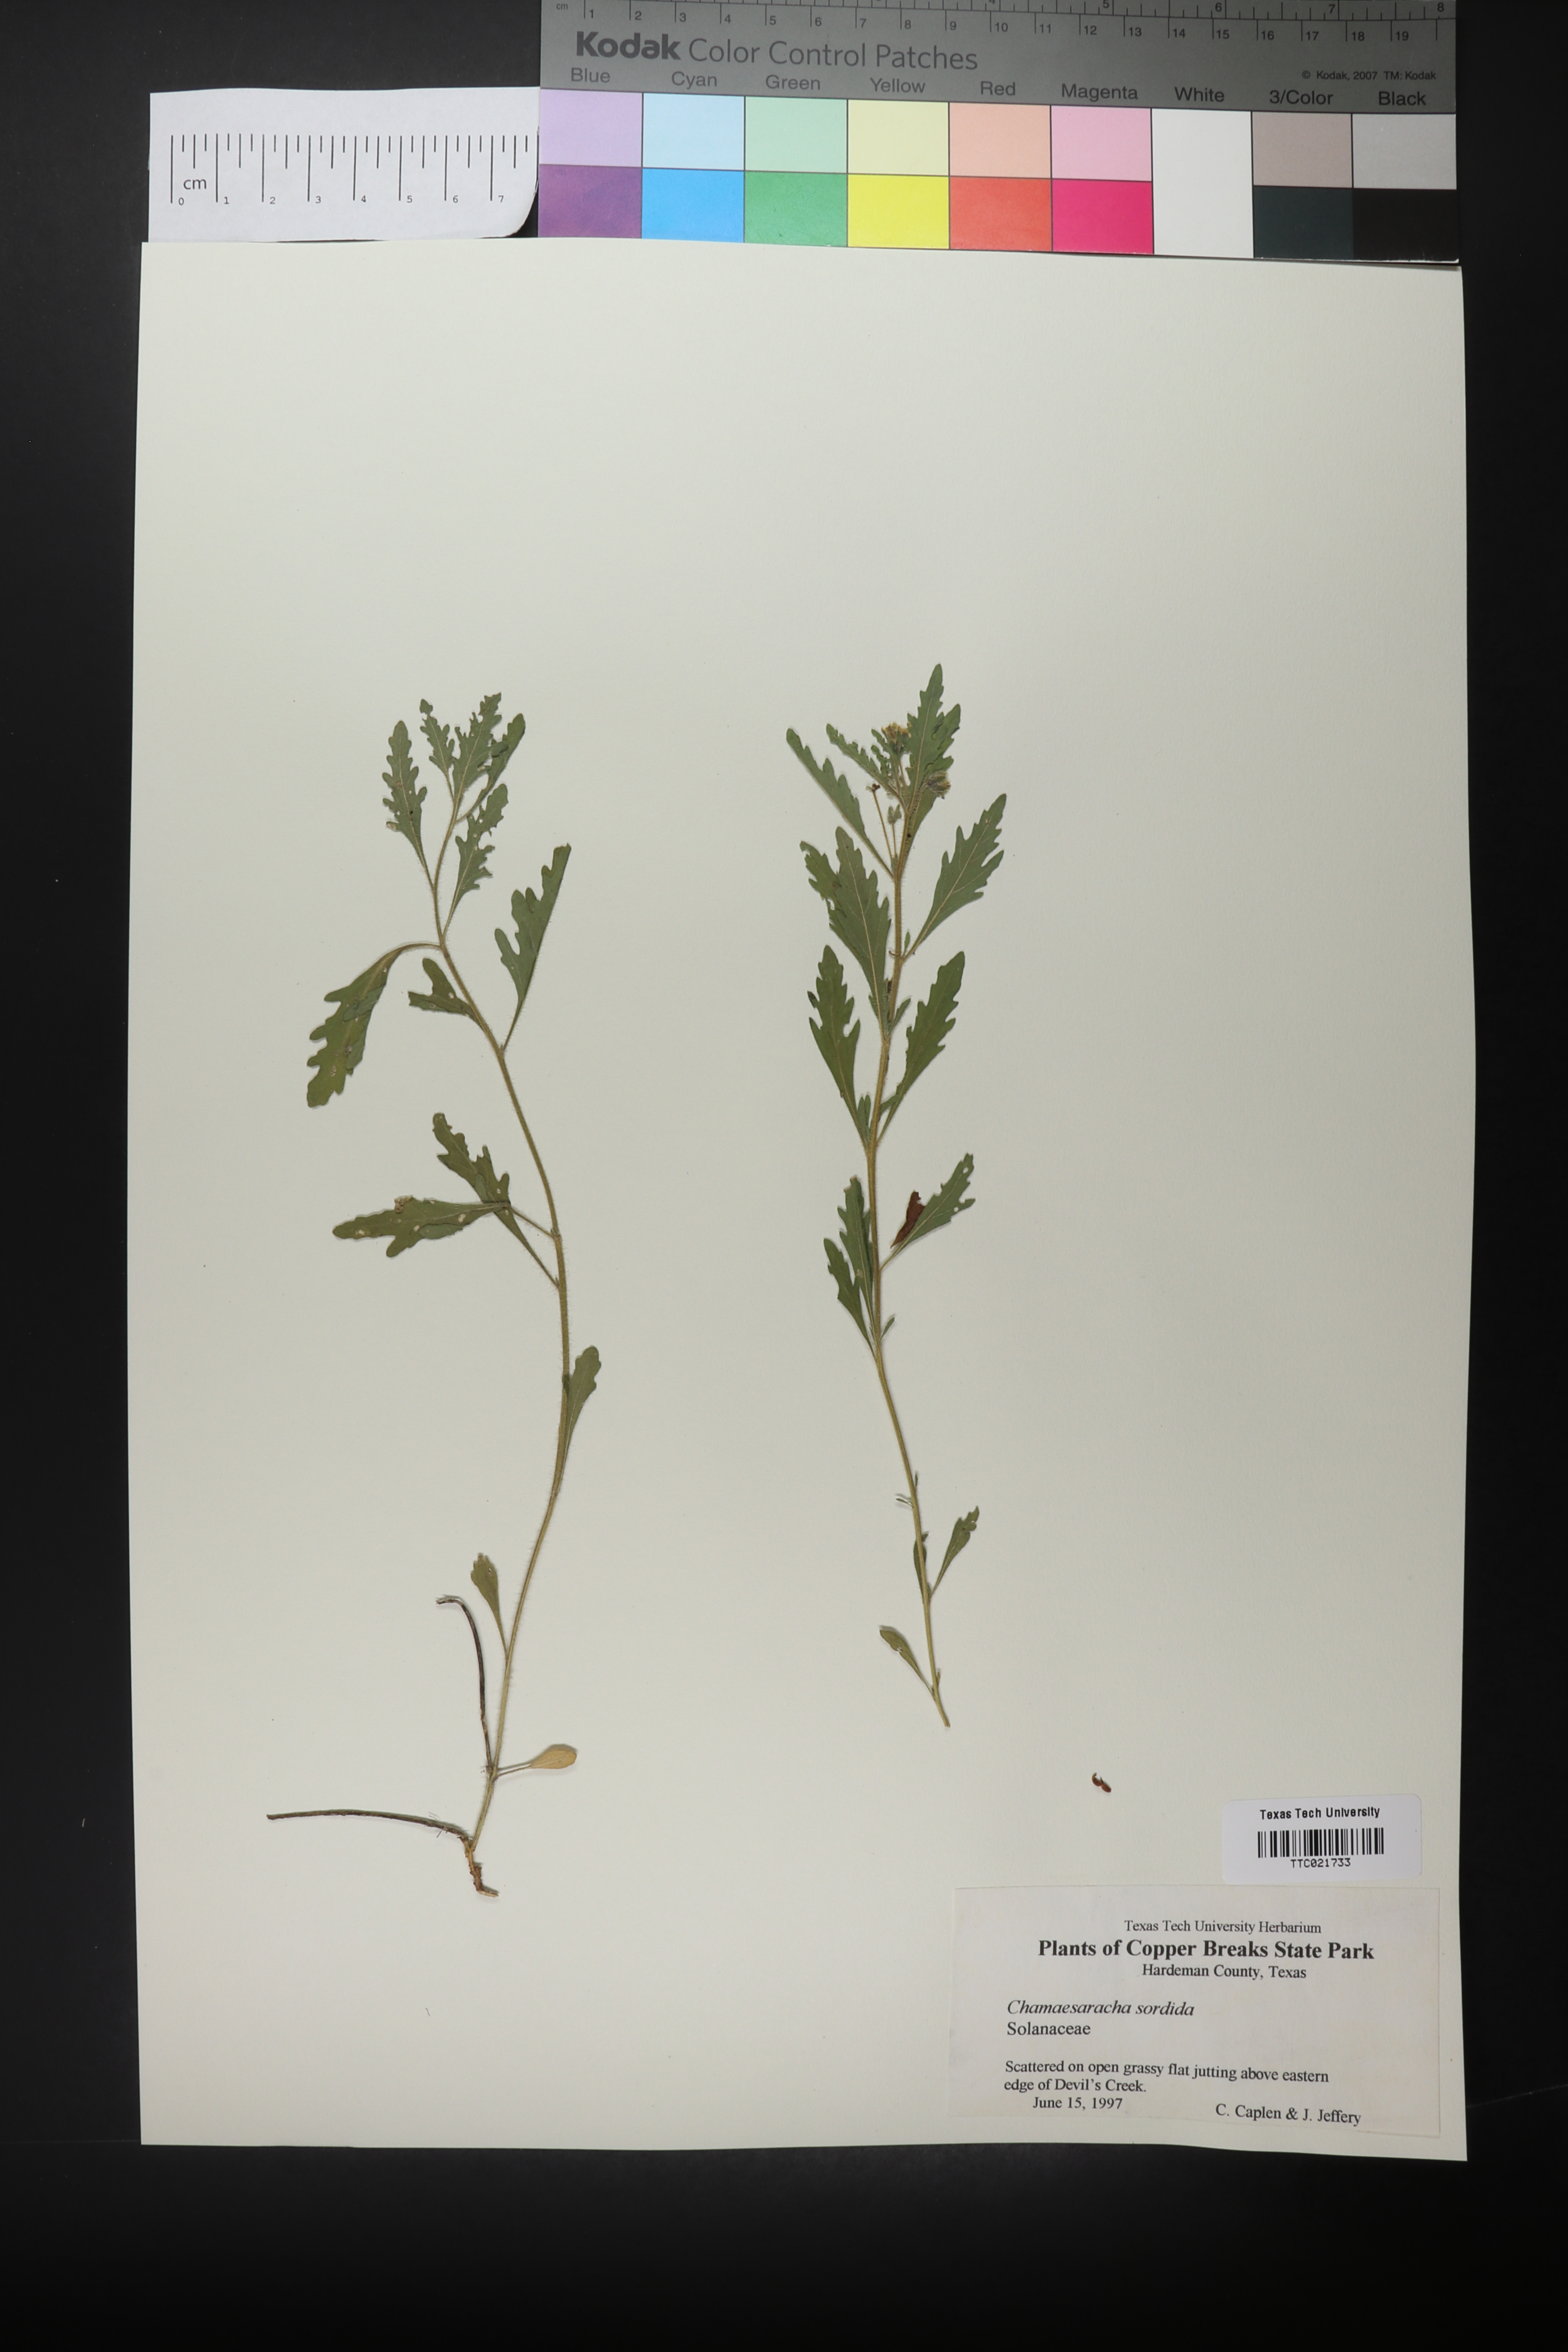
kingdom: Plantae
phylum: Tracheophyta
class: Magnoliopsida
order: Solanales
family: Solanaceae
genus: Chamaesaracha
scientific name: Chamaesaracha sordida
